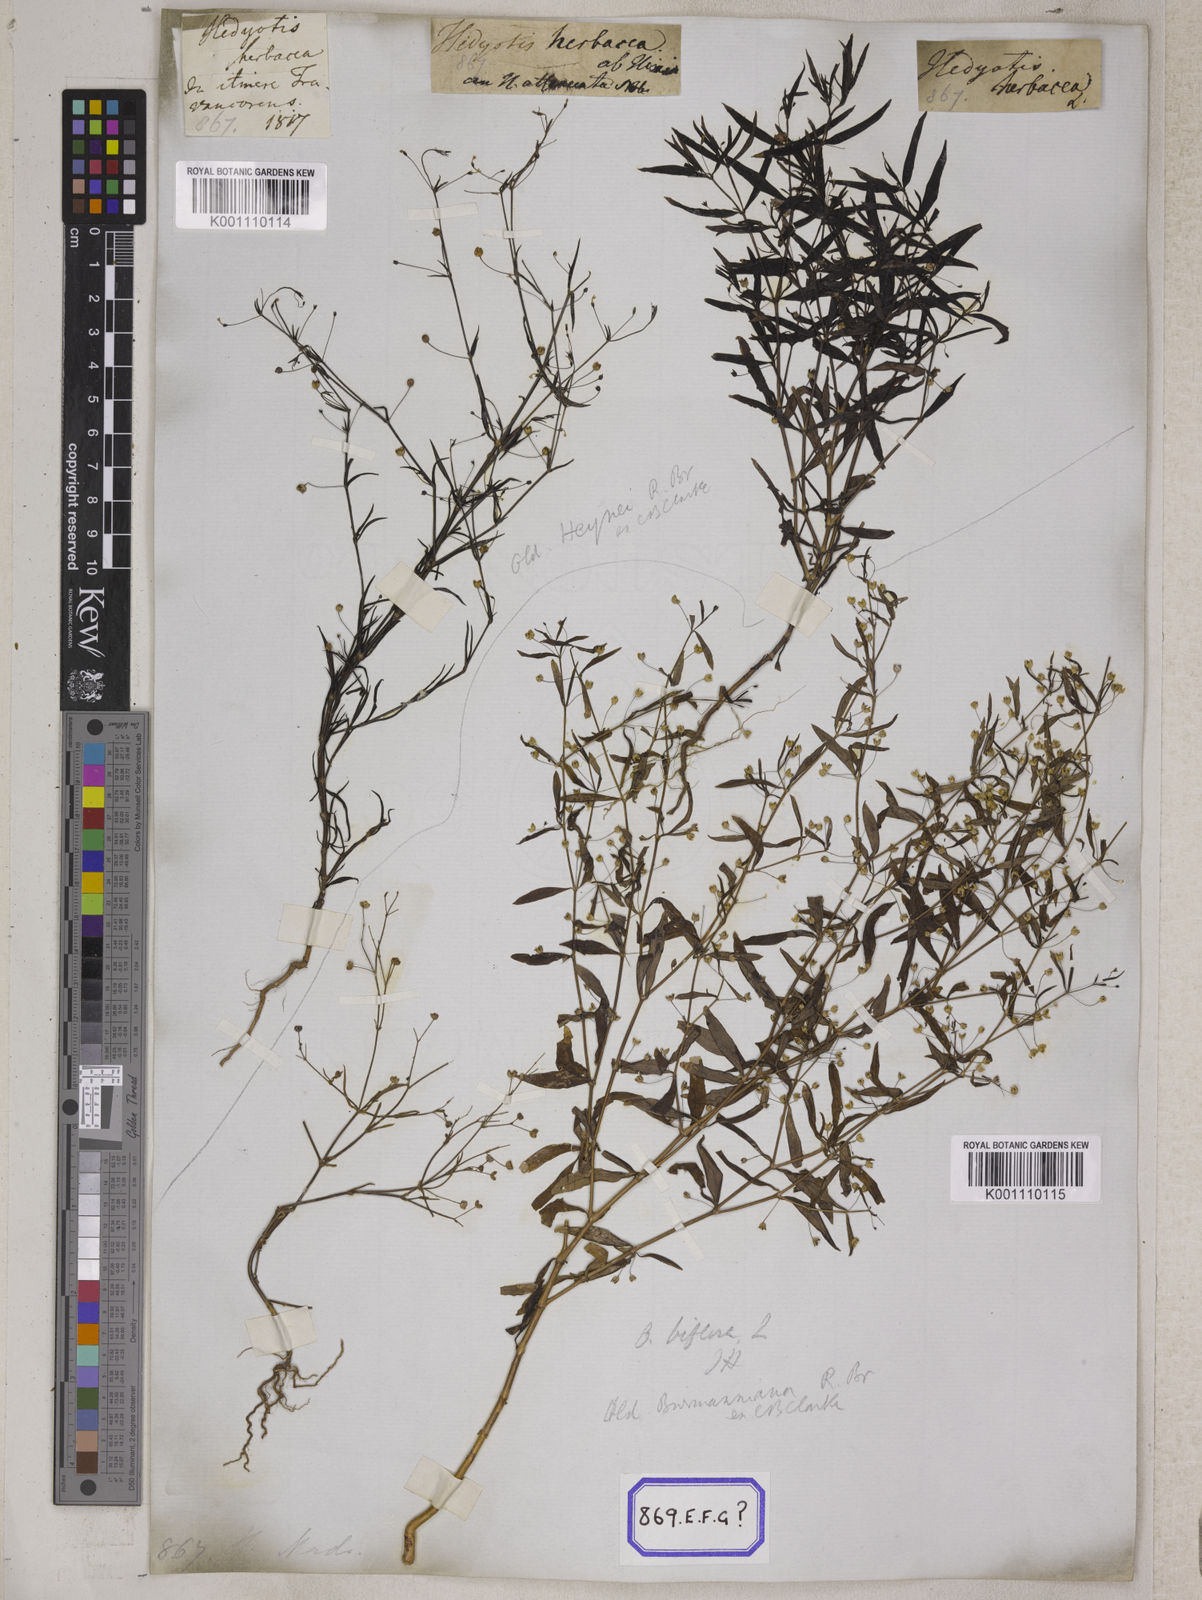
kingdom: Plantae
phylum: Tracheophyta
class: Magnoliopsida
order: Gentianales
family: Rubiaceae
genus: Hedyotis
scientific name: Hedyotis
